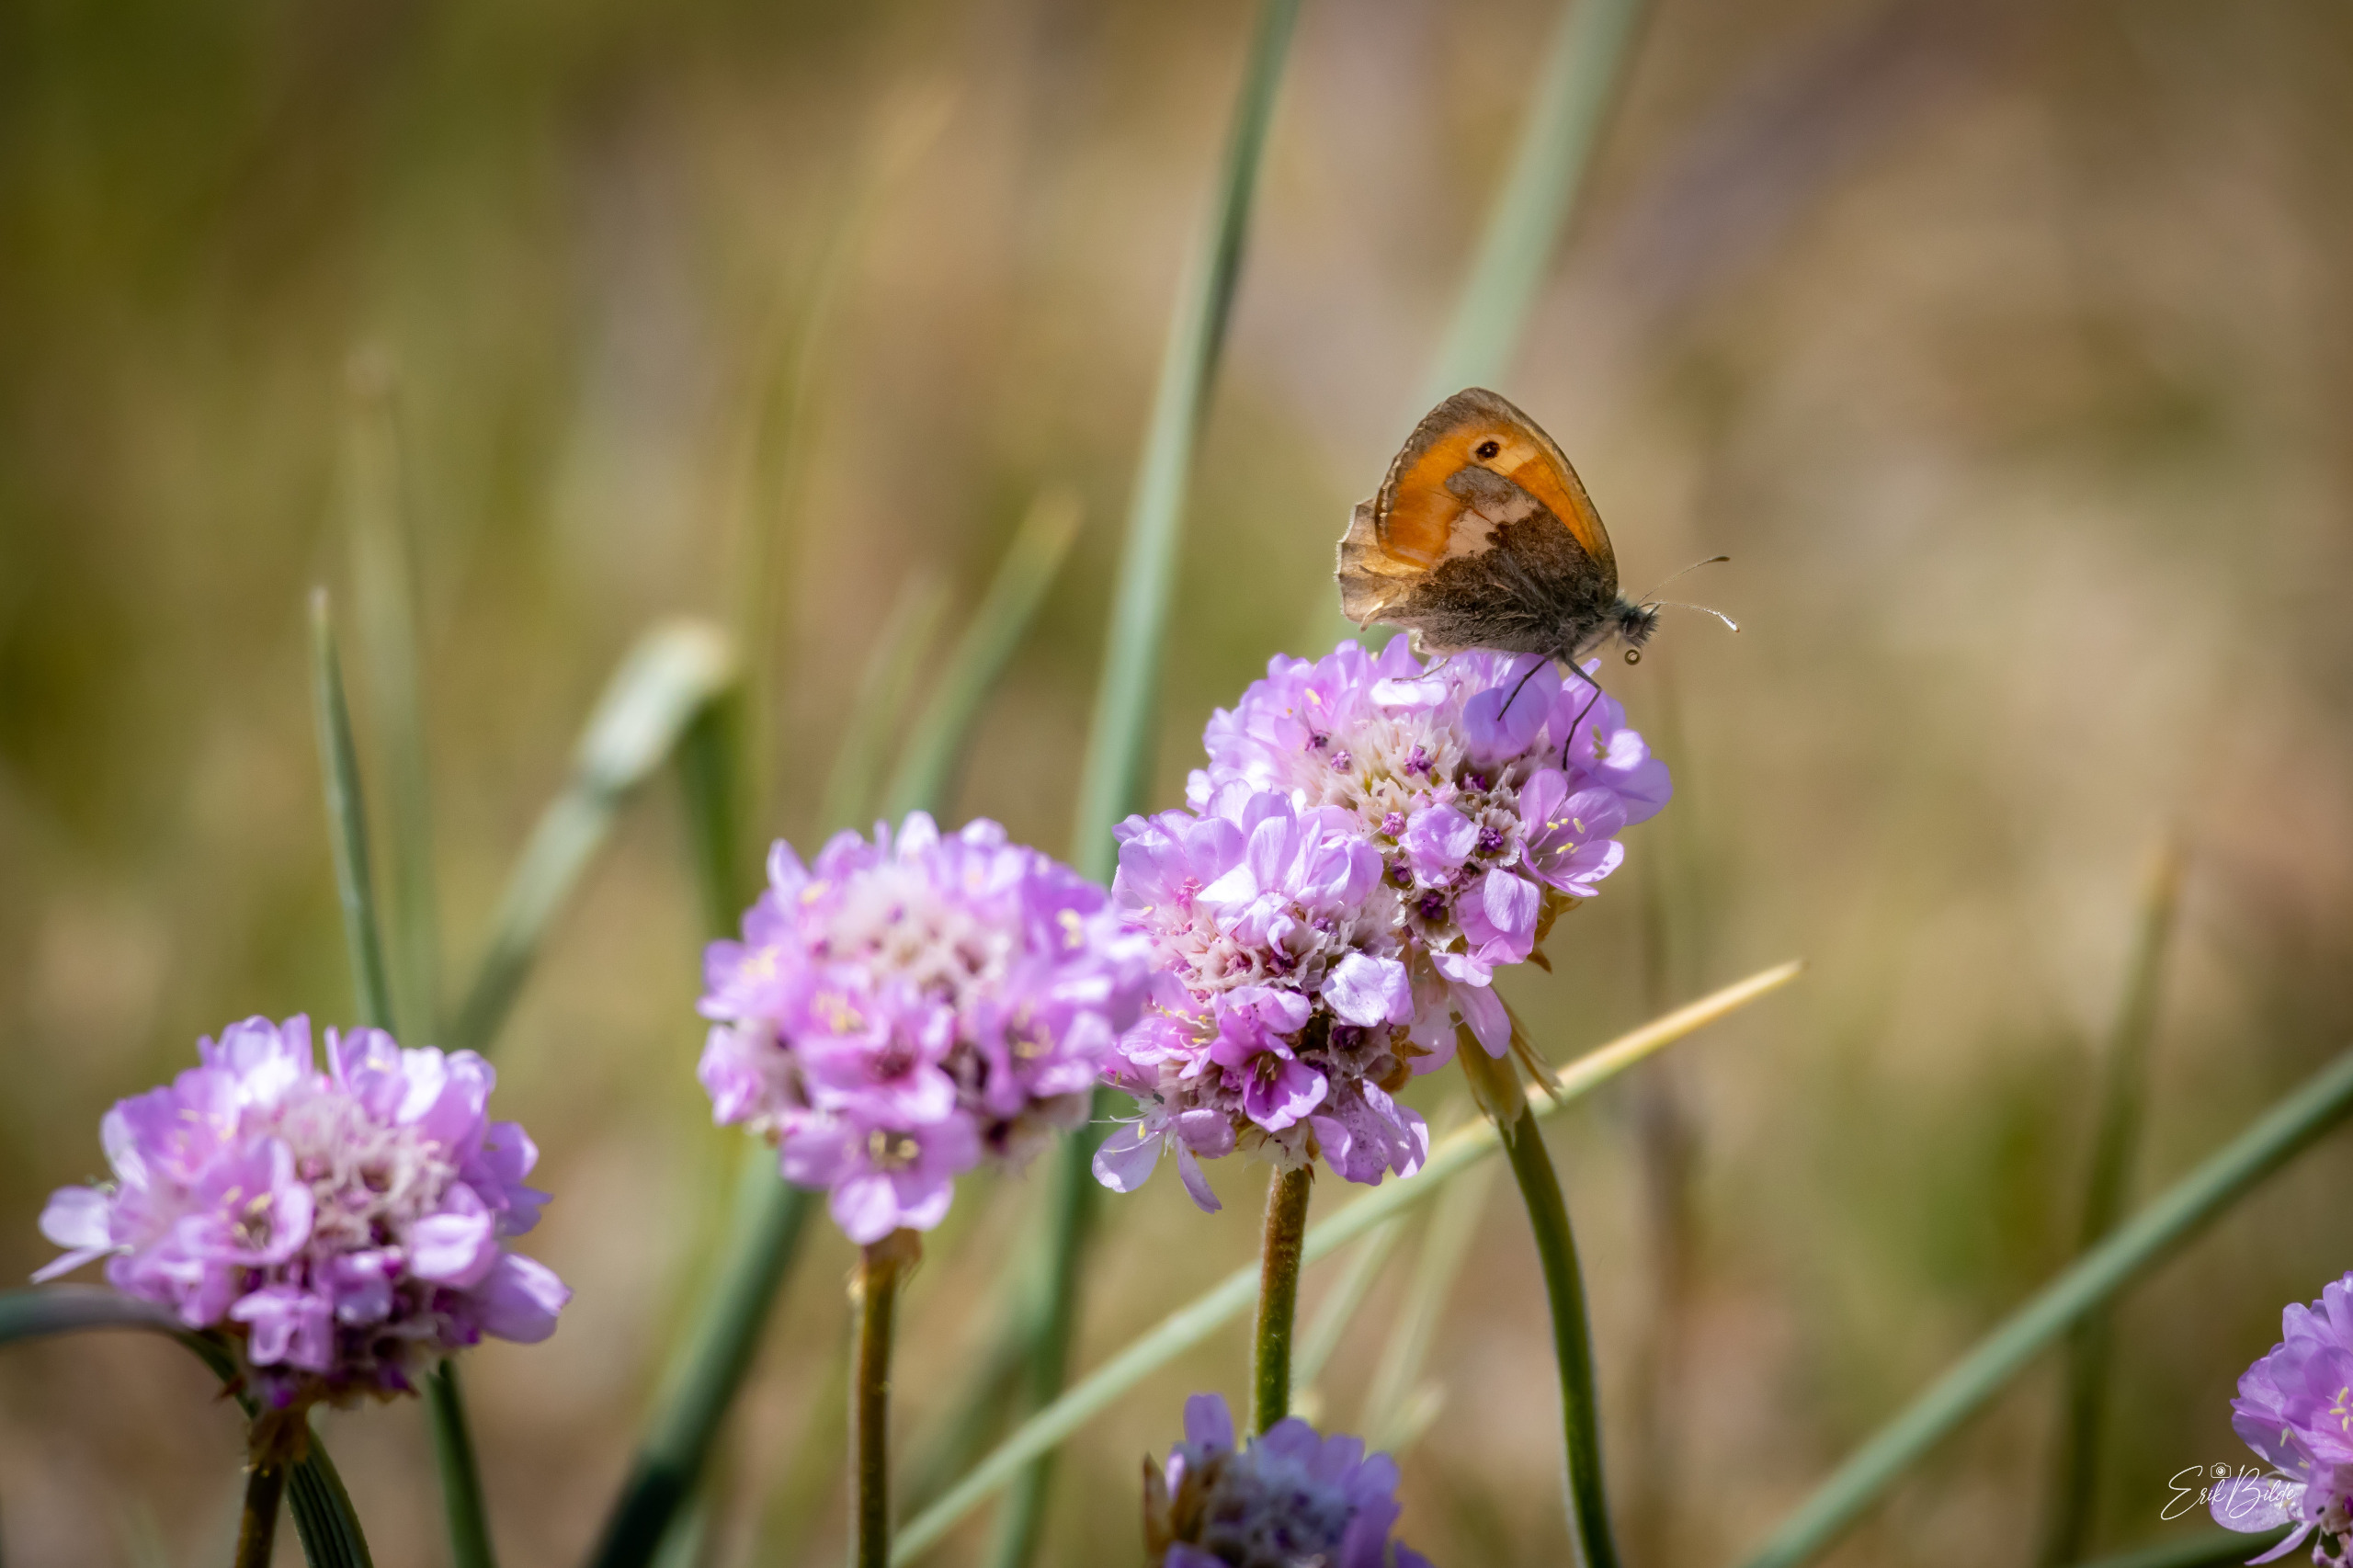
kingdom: Animalia
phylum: Arthropoda
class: Insecta
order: Lepidoptera
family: Nymphalidae
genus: Coenonympha
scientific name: Coenonympha pamphilus
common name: Okkergul randøje
